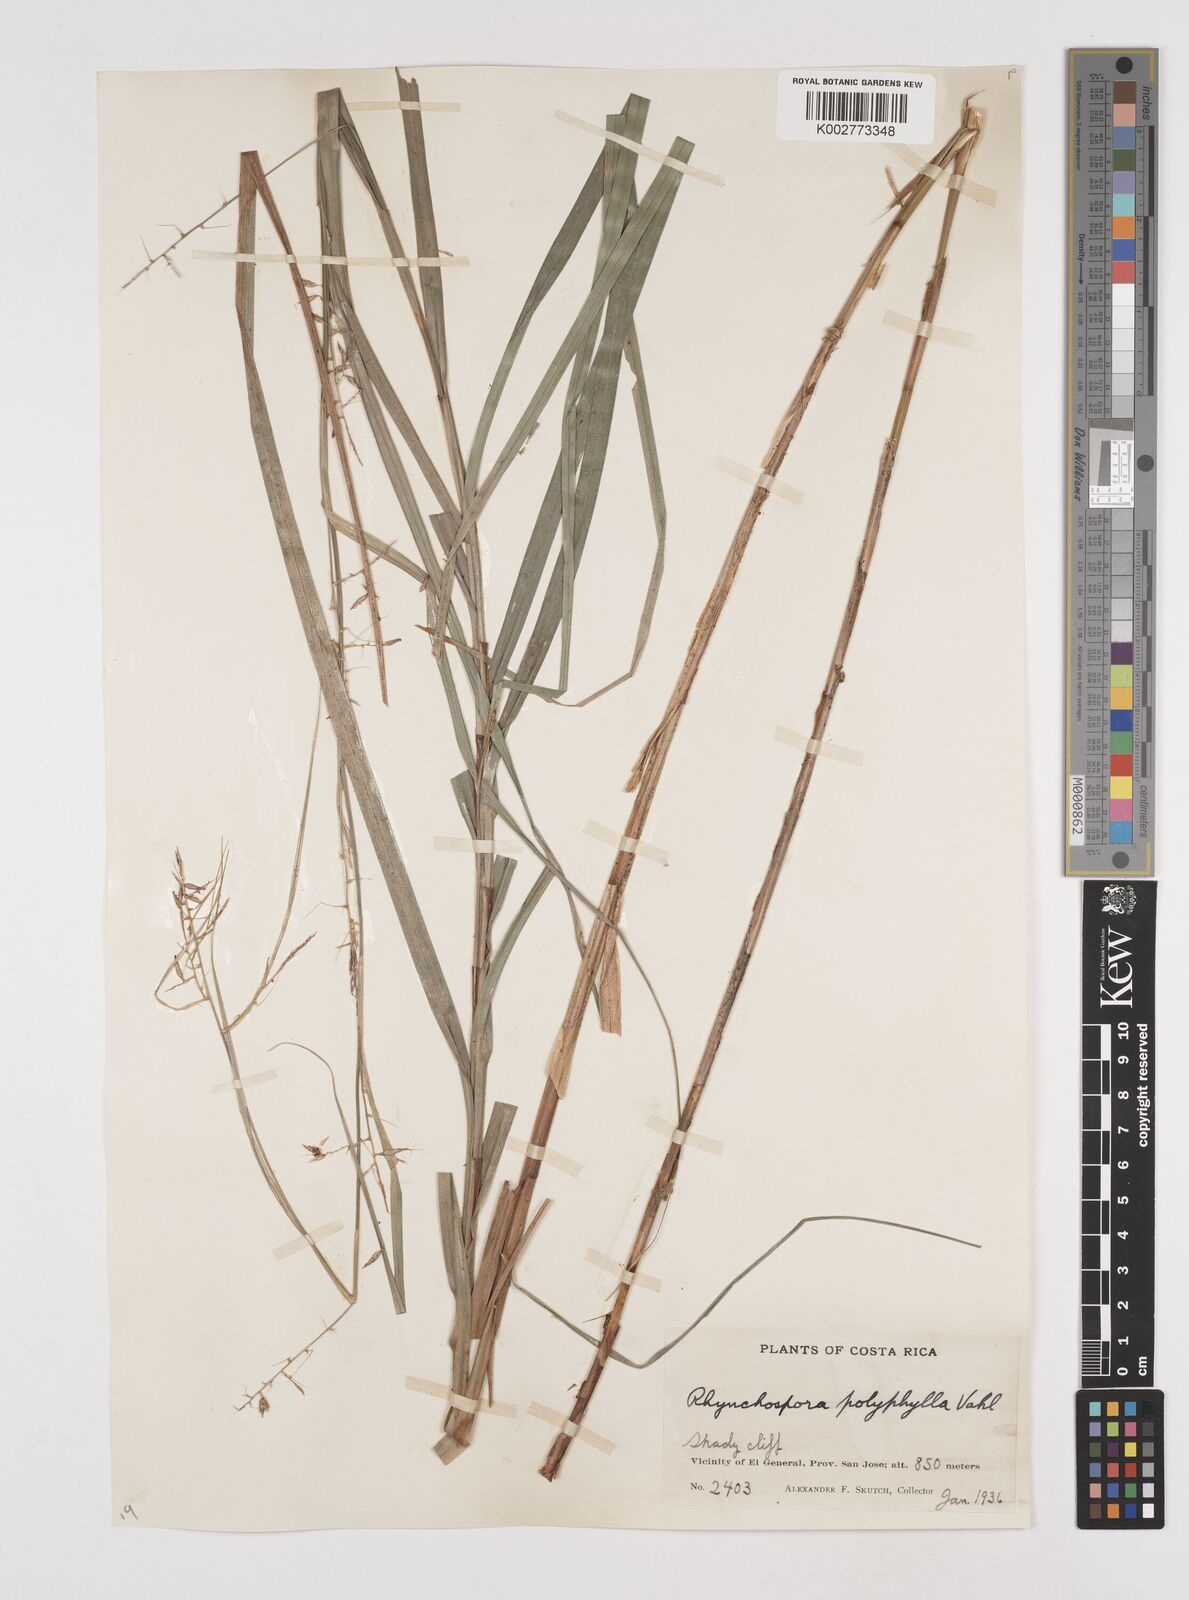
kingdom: Plantae
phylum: Tracheophyta
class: Liliopsida
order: Poales
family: Cyperaceae
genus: Rhynchospora
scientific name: Rhynchospora polyphylla
